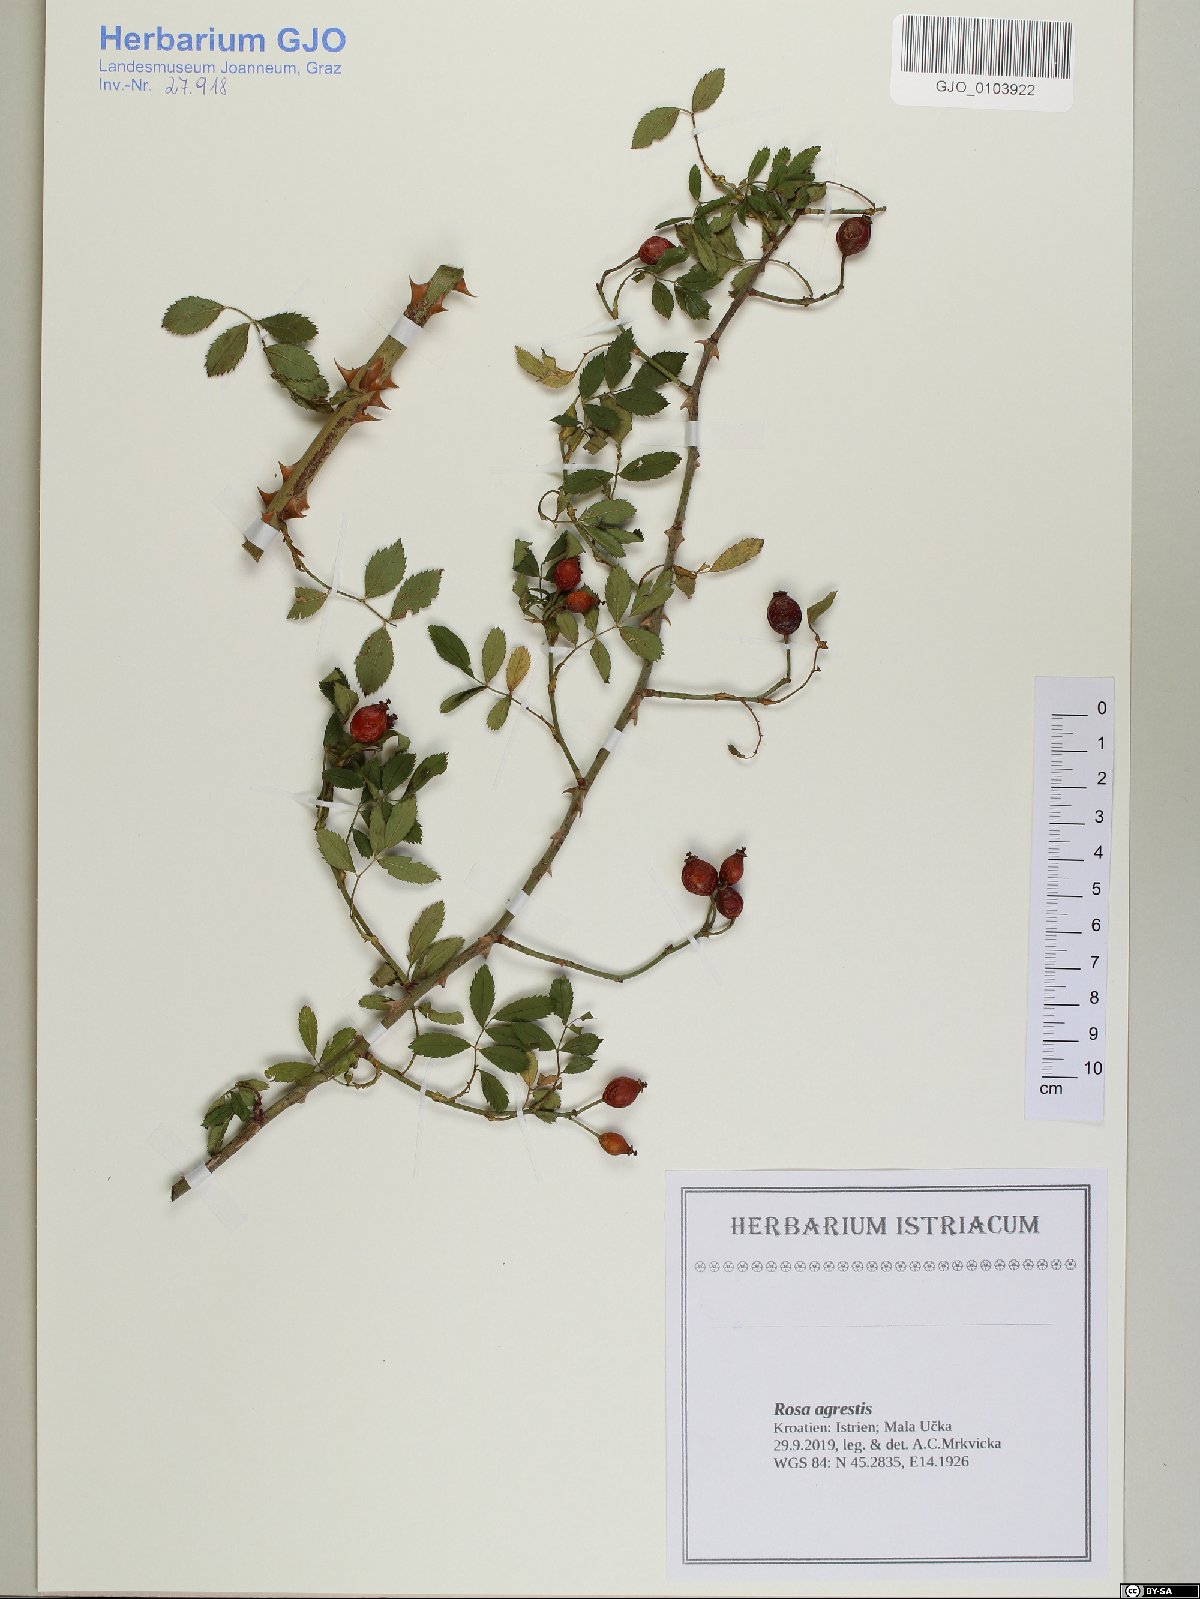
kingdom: Plantae
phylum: Tracheophyta
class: Magnoliopsida
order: Rosales
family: Rosaceae
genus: Rosa
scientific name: Rosa agrestis
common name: Fieldbriar
